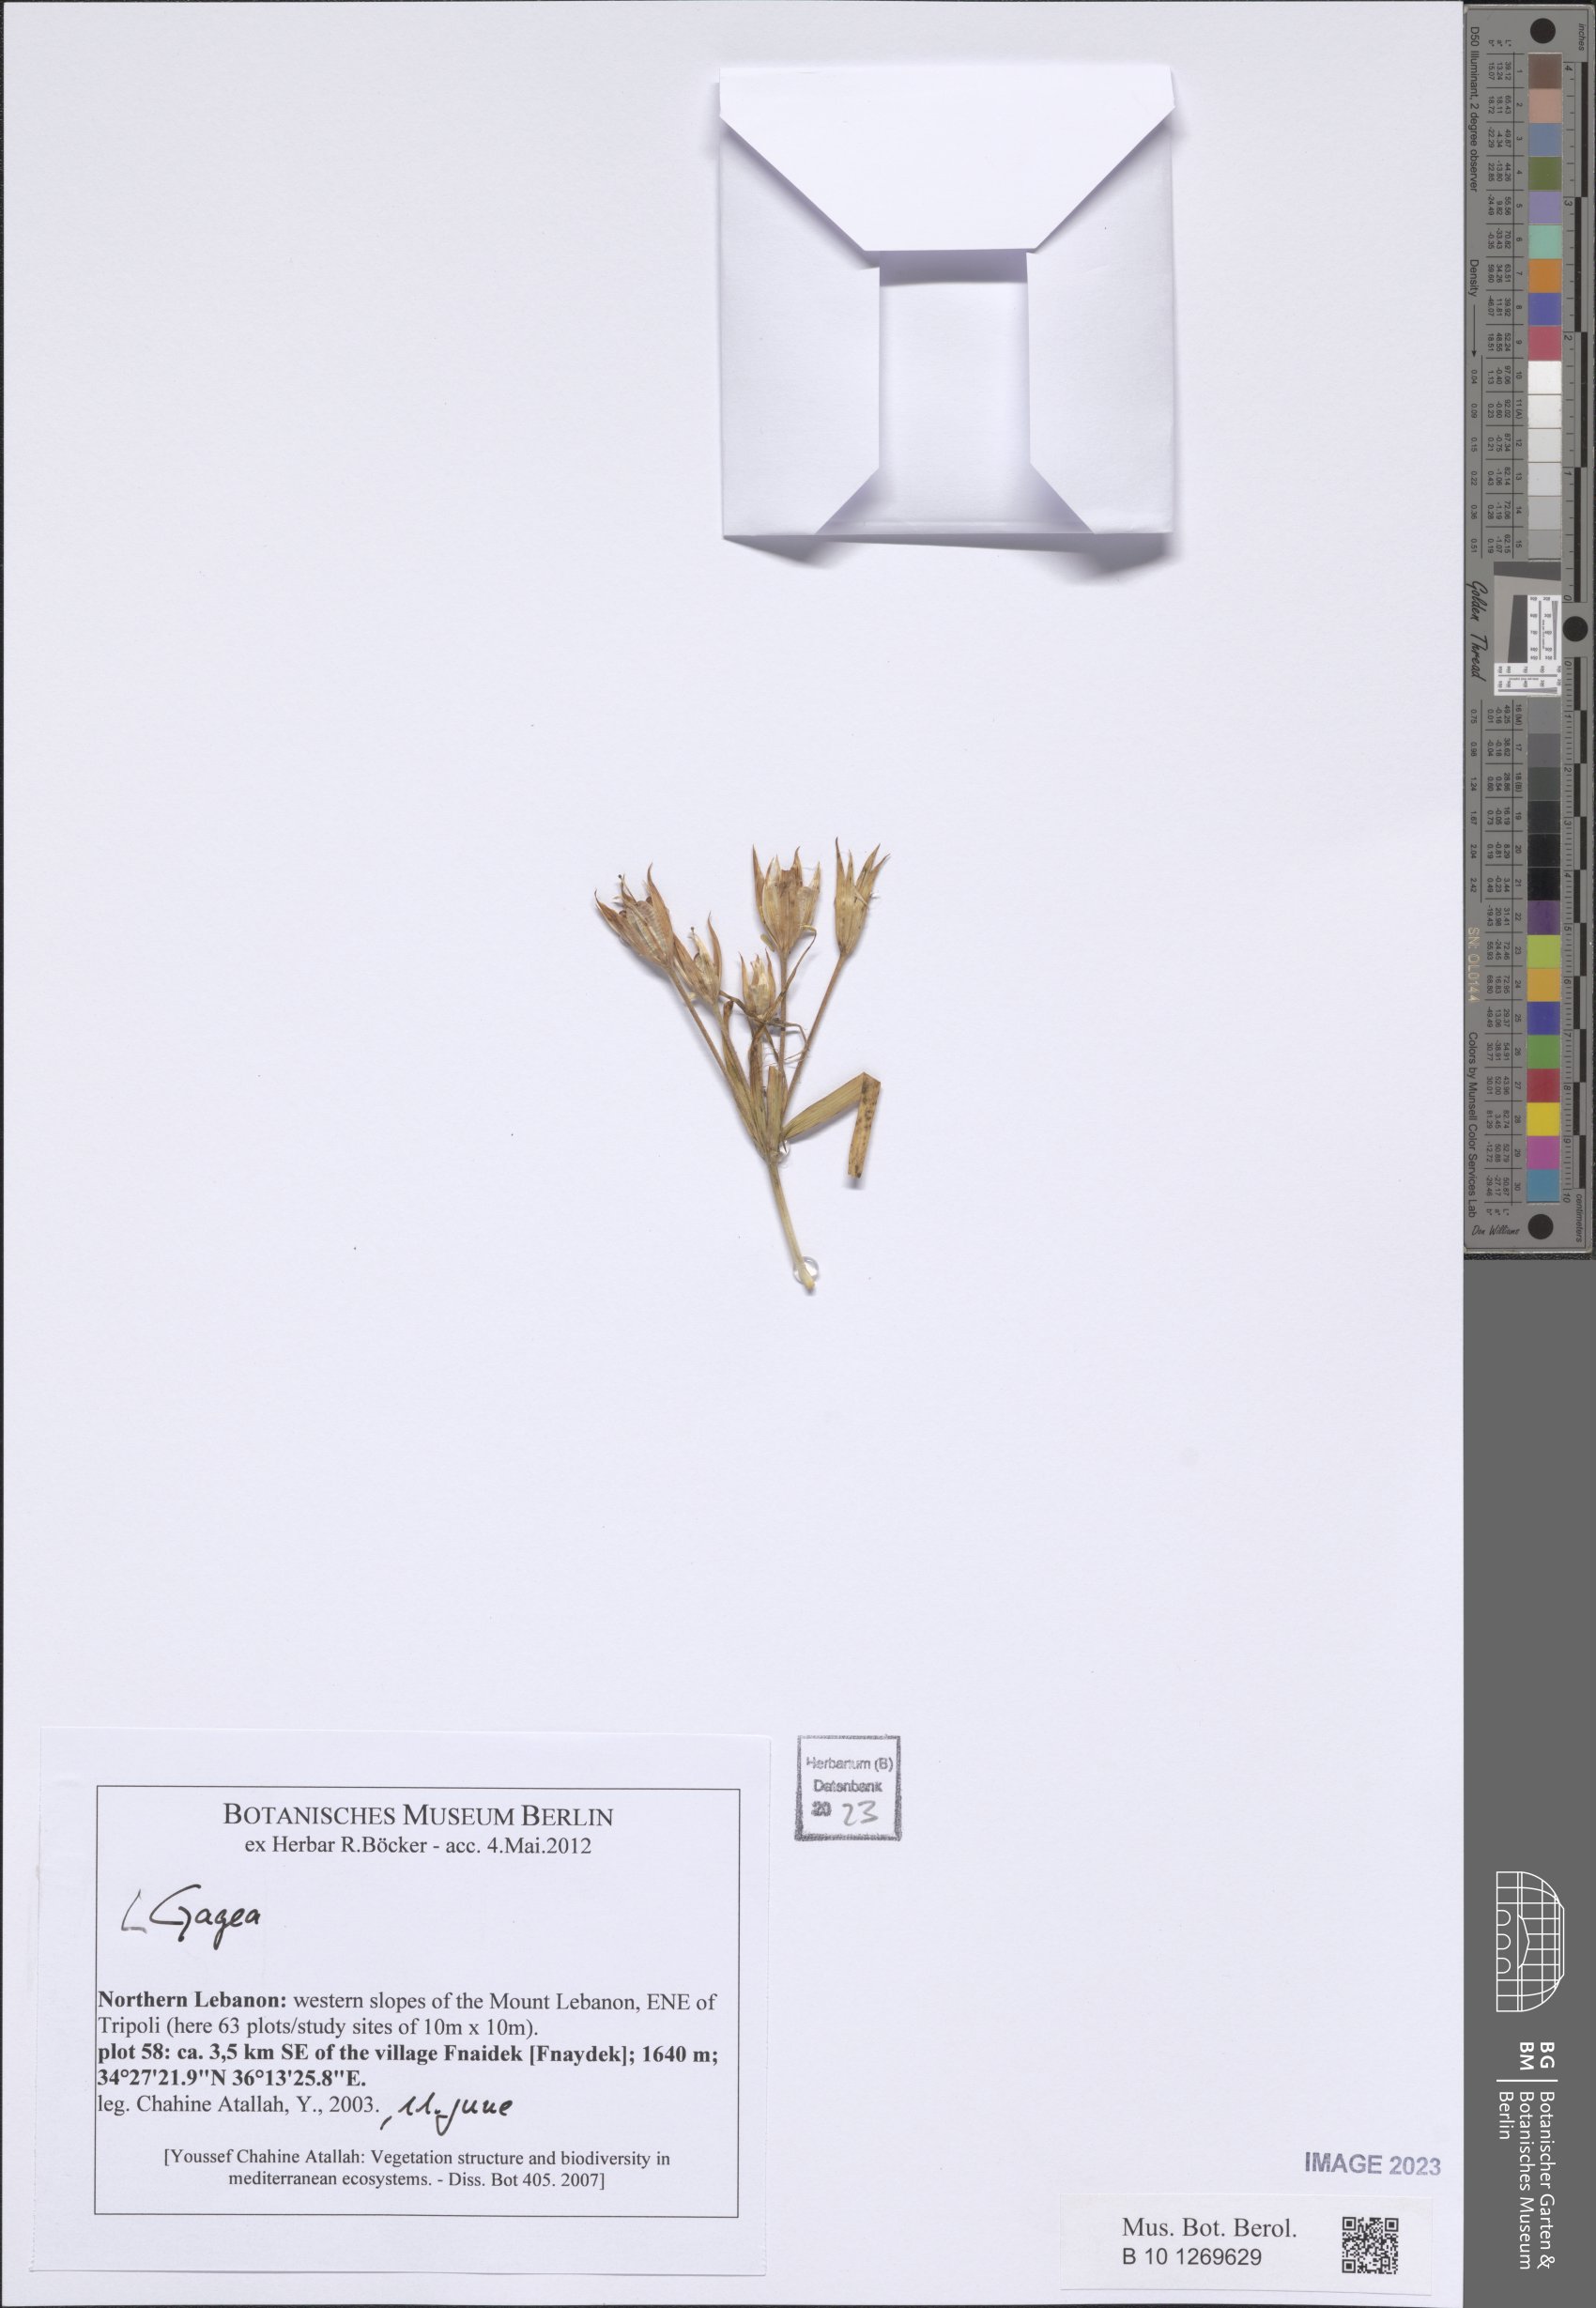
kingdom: Plantae
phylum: Tracheophyta
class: Liliopsida
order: Liliales
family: Liliaceae
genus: Gagea
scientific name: Gagea
